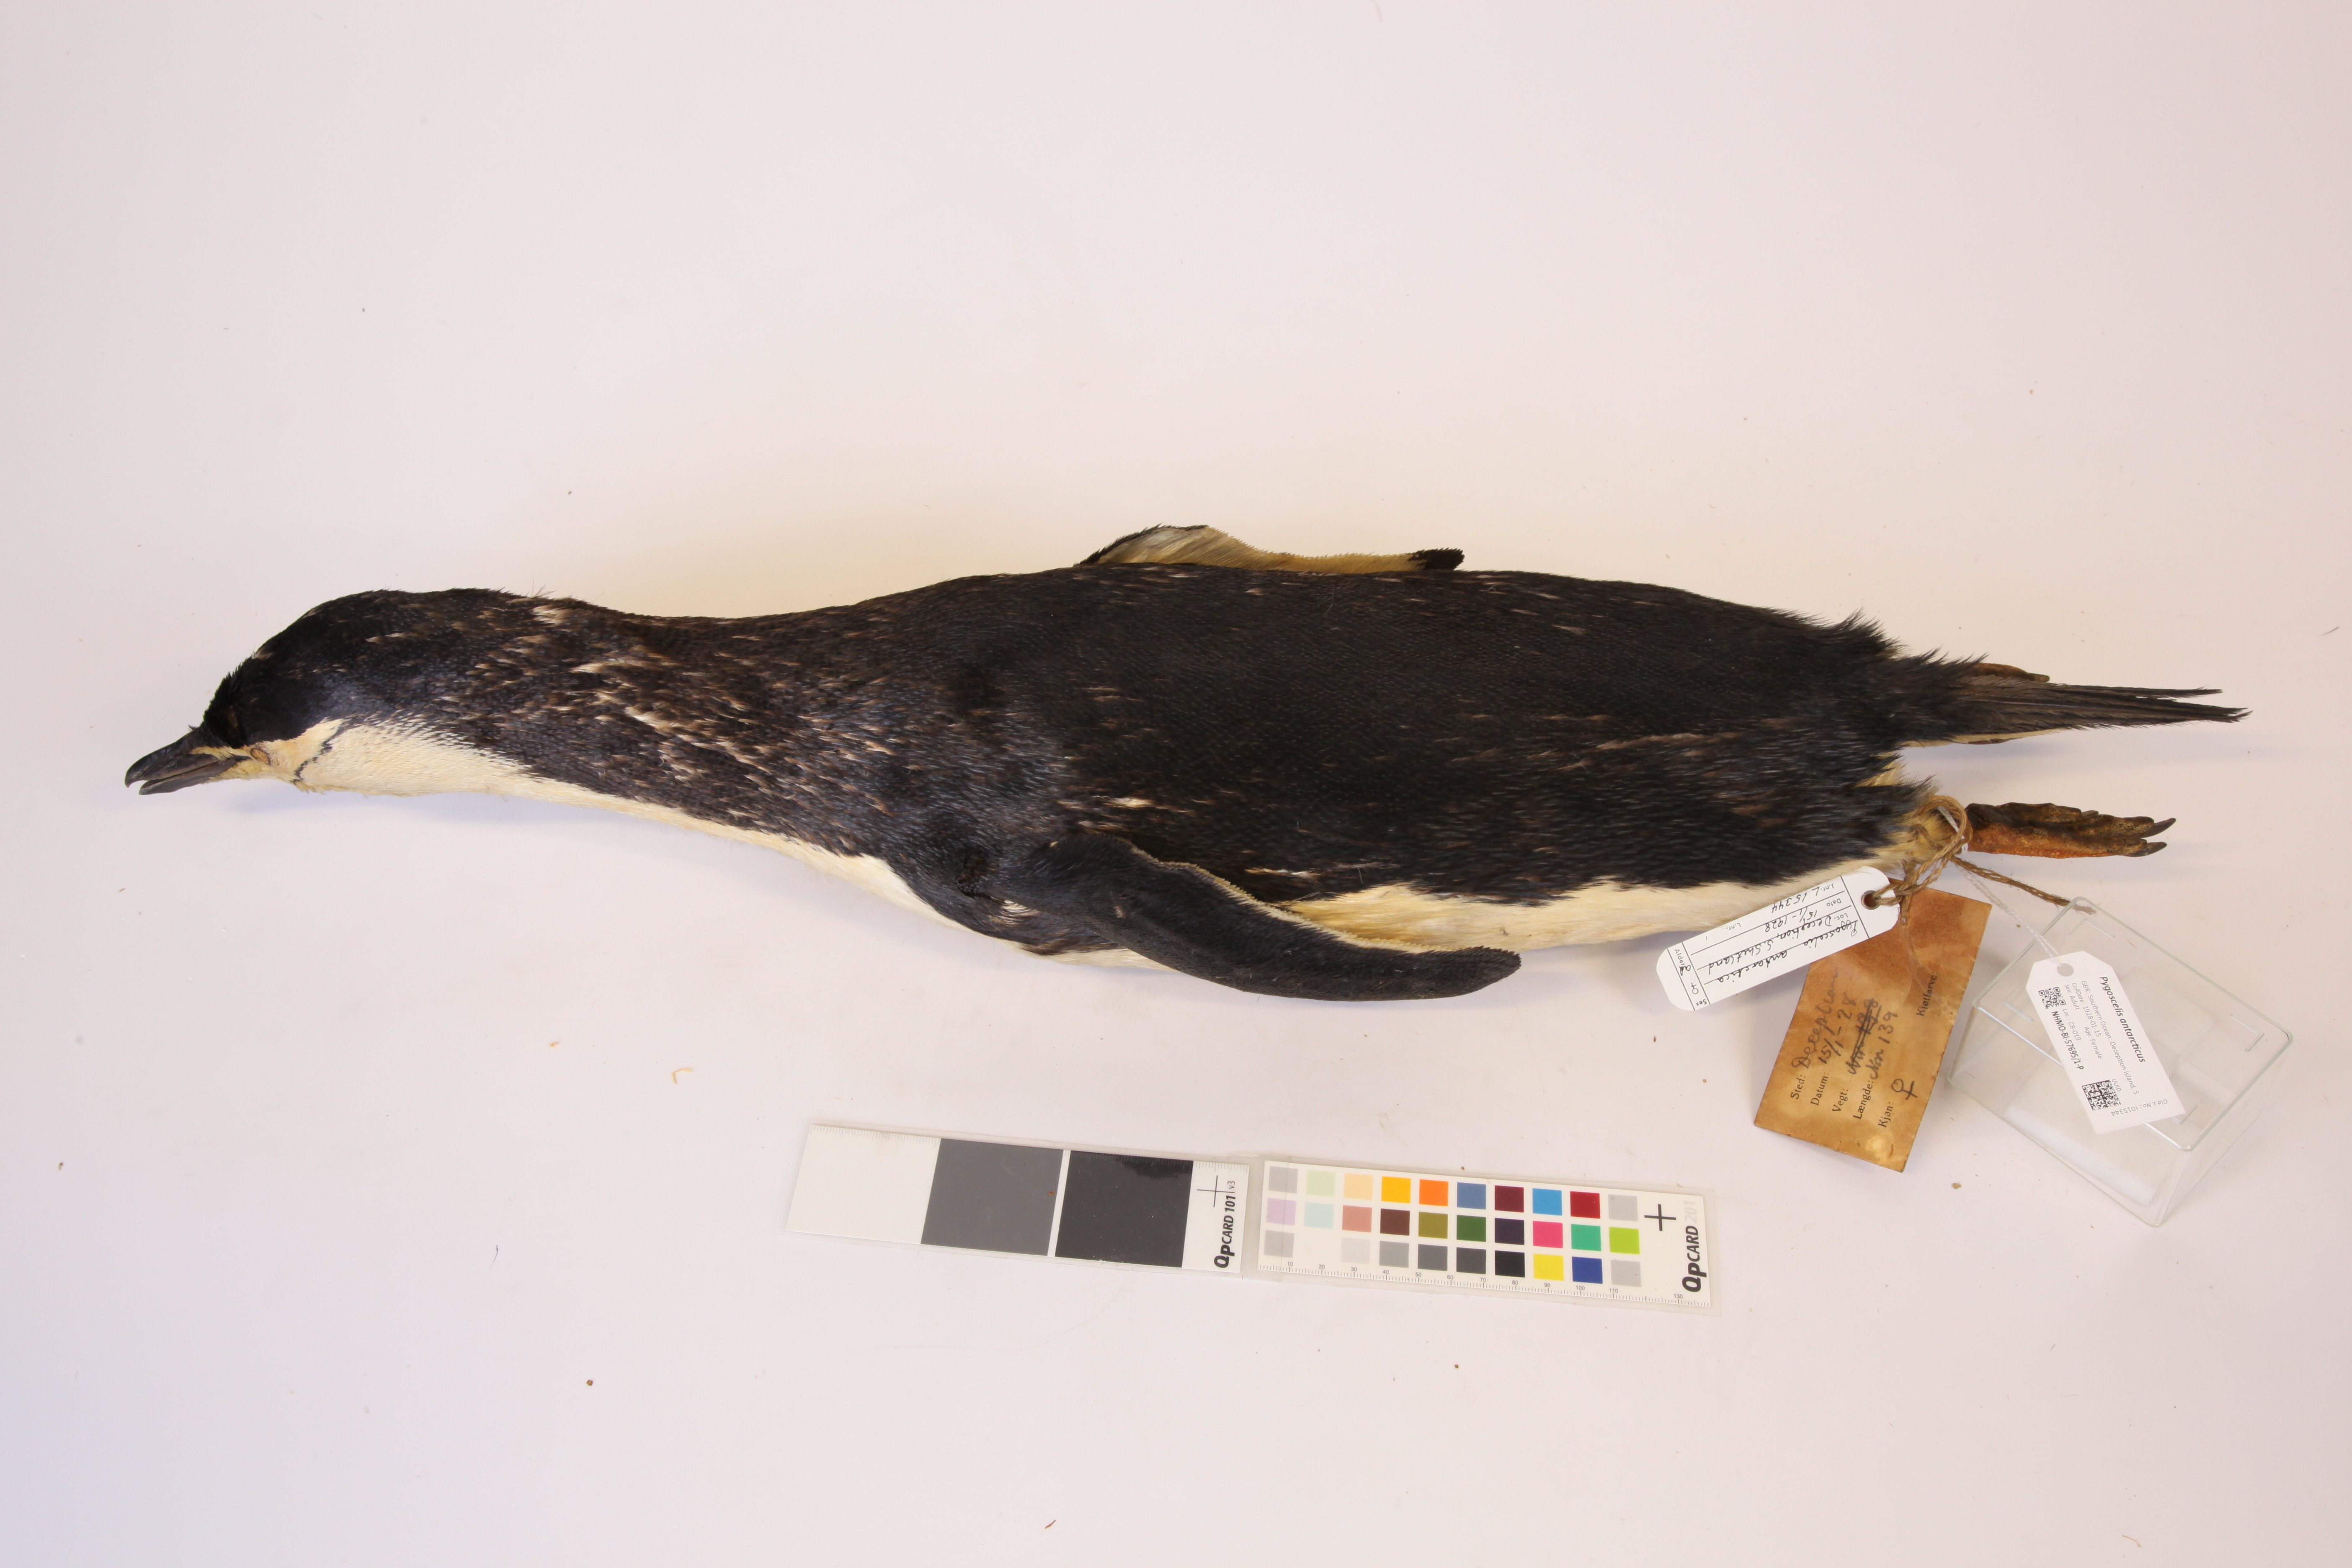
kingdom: Animalia
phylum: Chordata
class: Aves
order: Sphenisciformes
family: Spheniscidae
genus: Pygoscelis
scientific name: Pygoscelis antarcticus
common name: Chinstrap penguin
